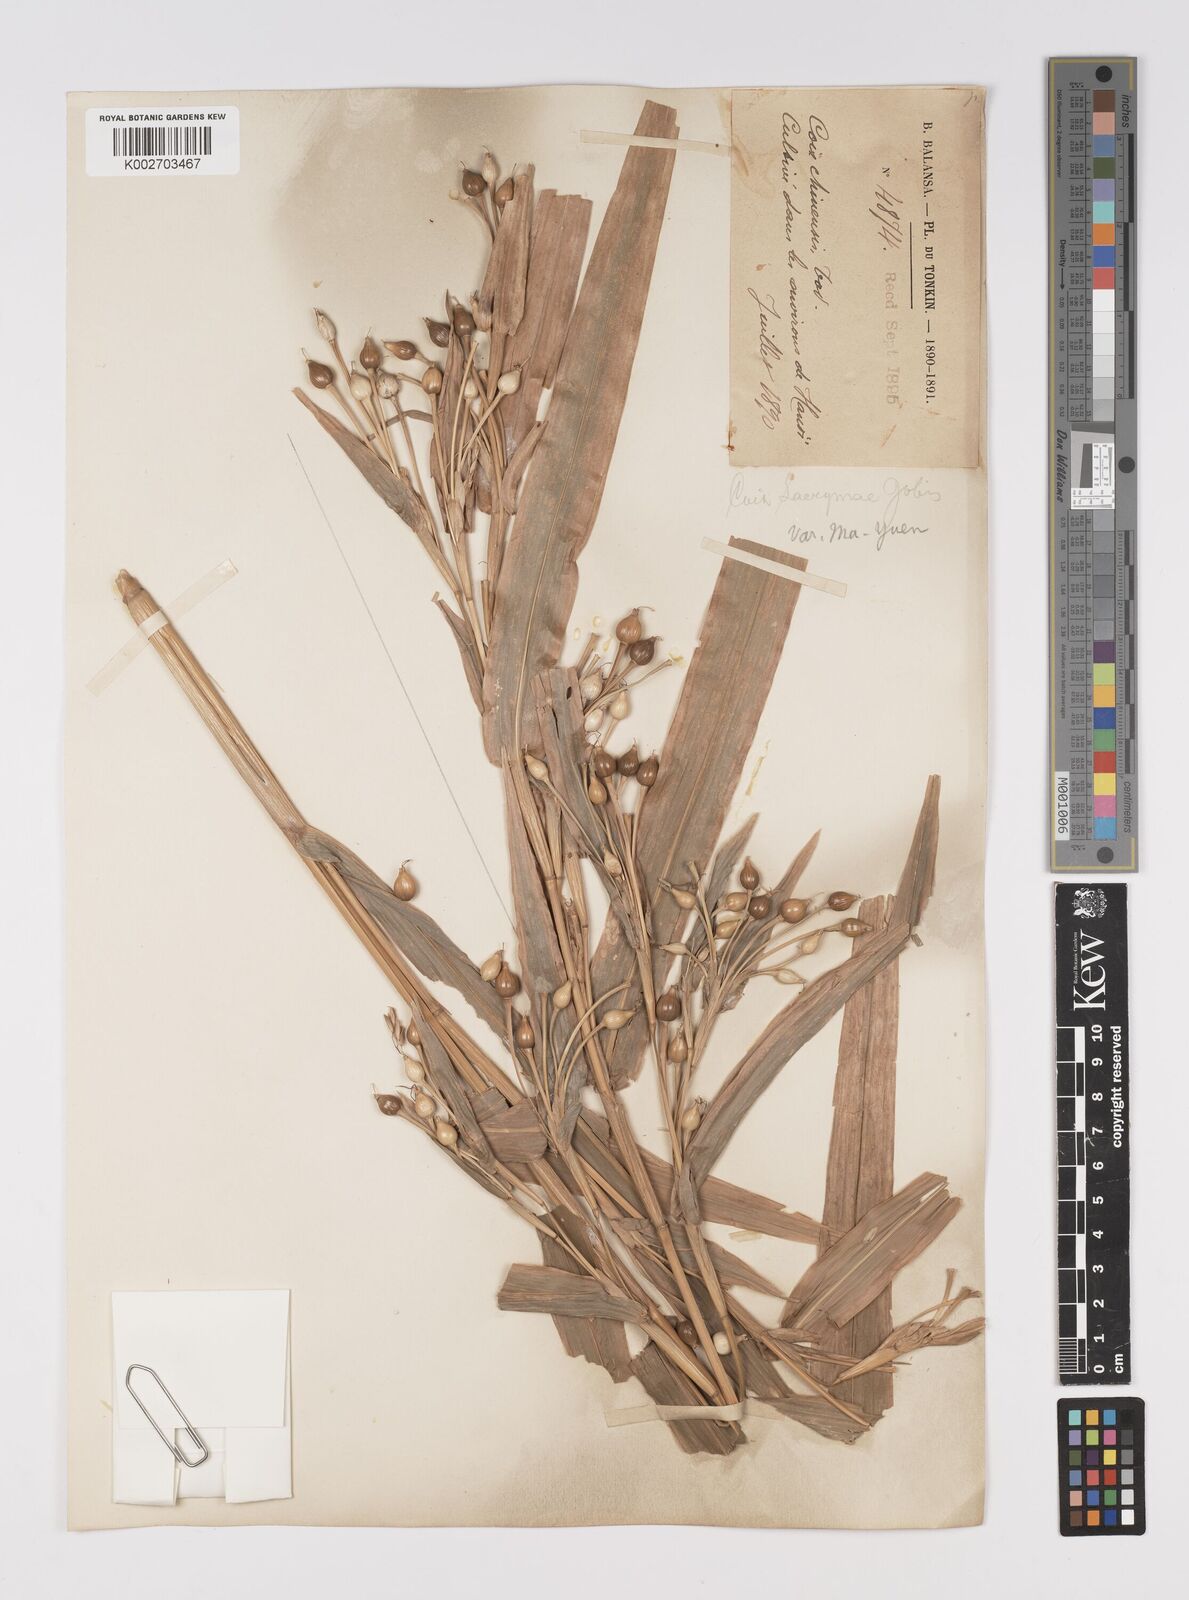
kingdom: Plantae
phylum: Tracheophyta
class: Liliopsida
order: Poales
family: Poaceae
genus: Coix
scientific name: Coix lacryma-jobi
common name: Job's tears
